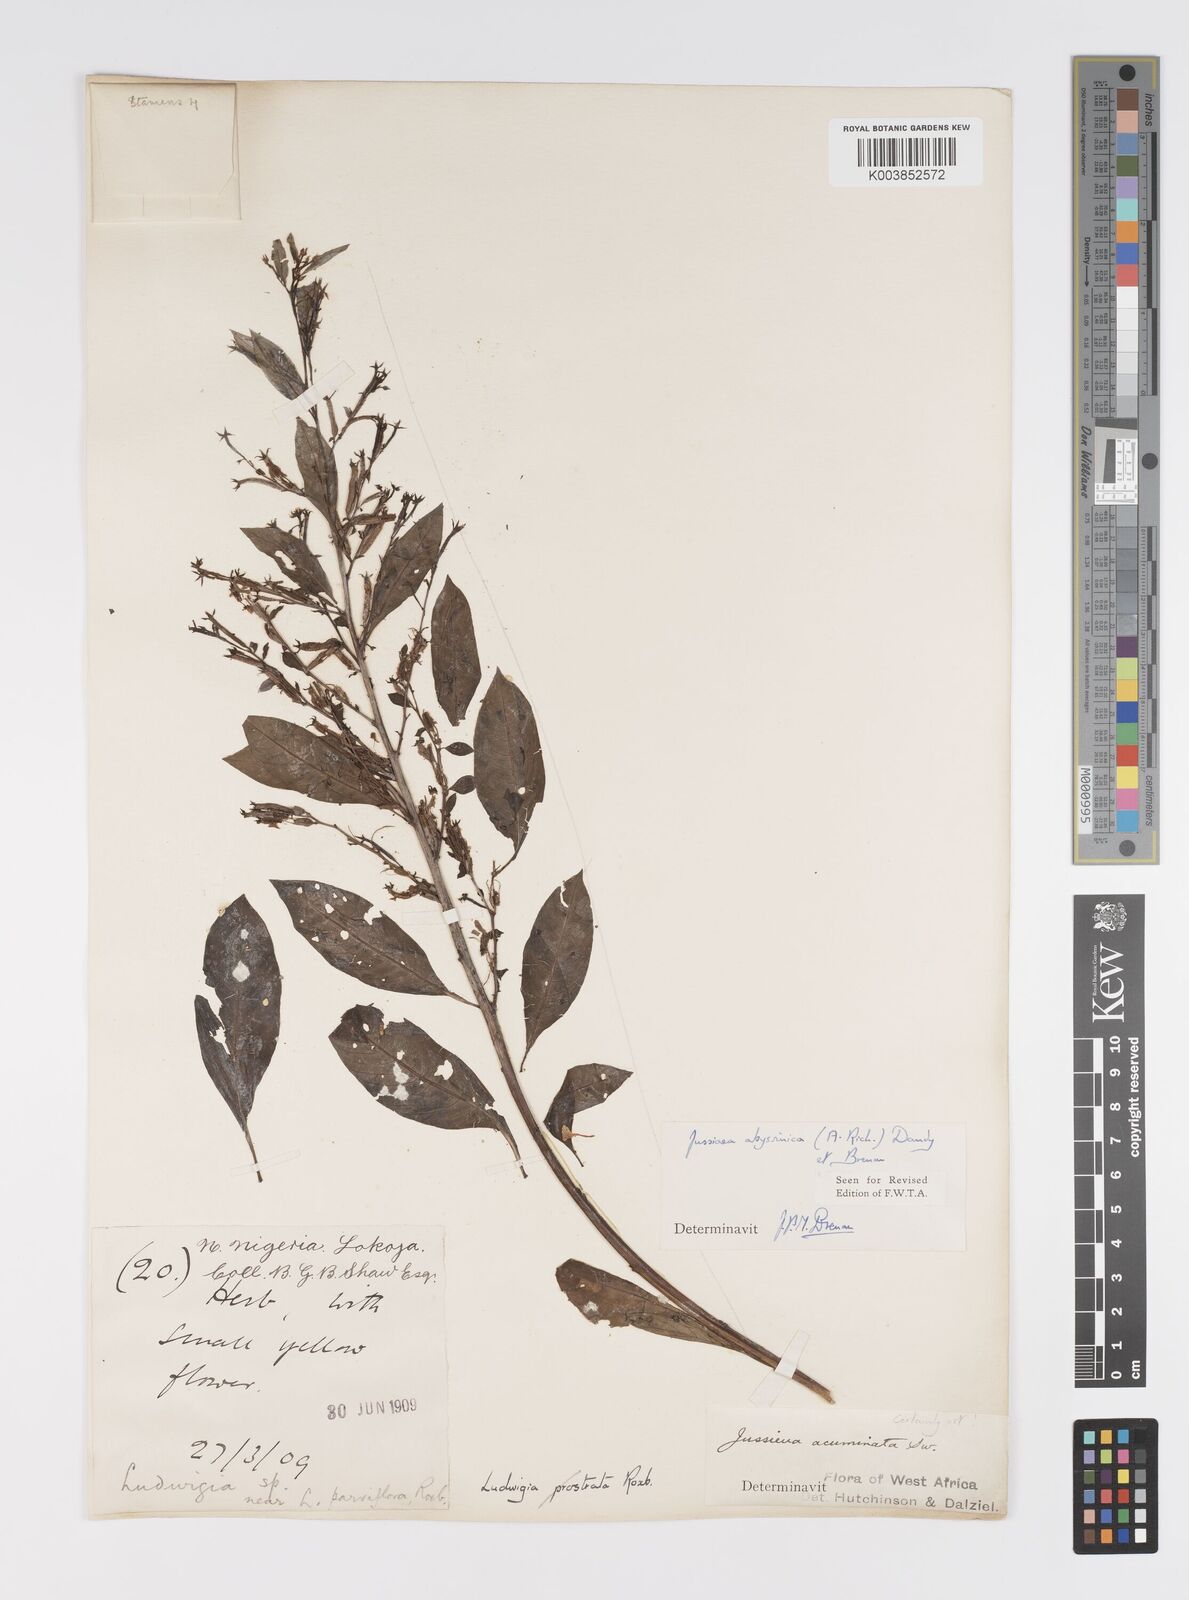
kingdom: Plantae
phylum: Tracheophyta
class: Magnoliopsida
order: Myrtales
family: Onagraceae
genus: Ludwigia
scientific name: Ludwigia abyssinica
